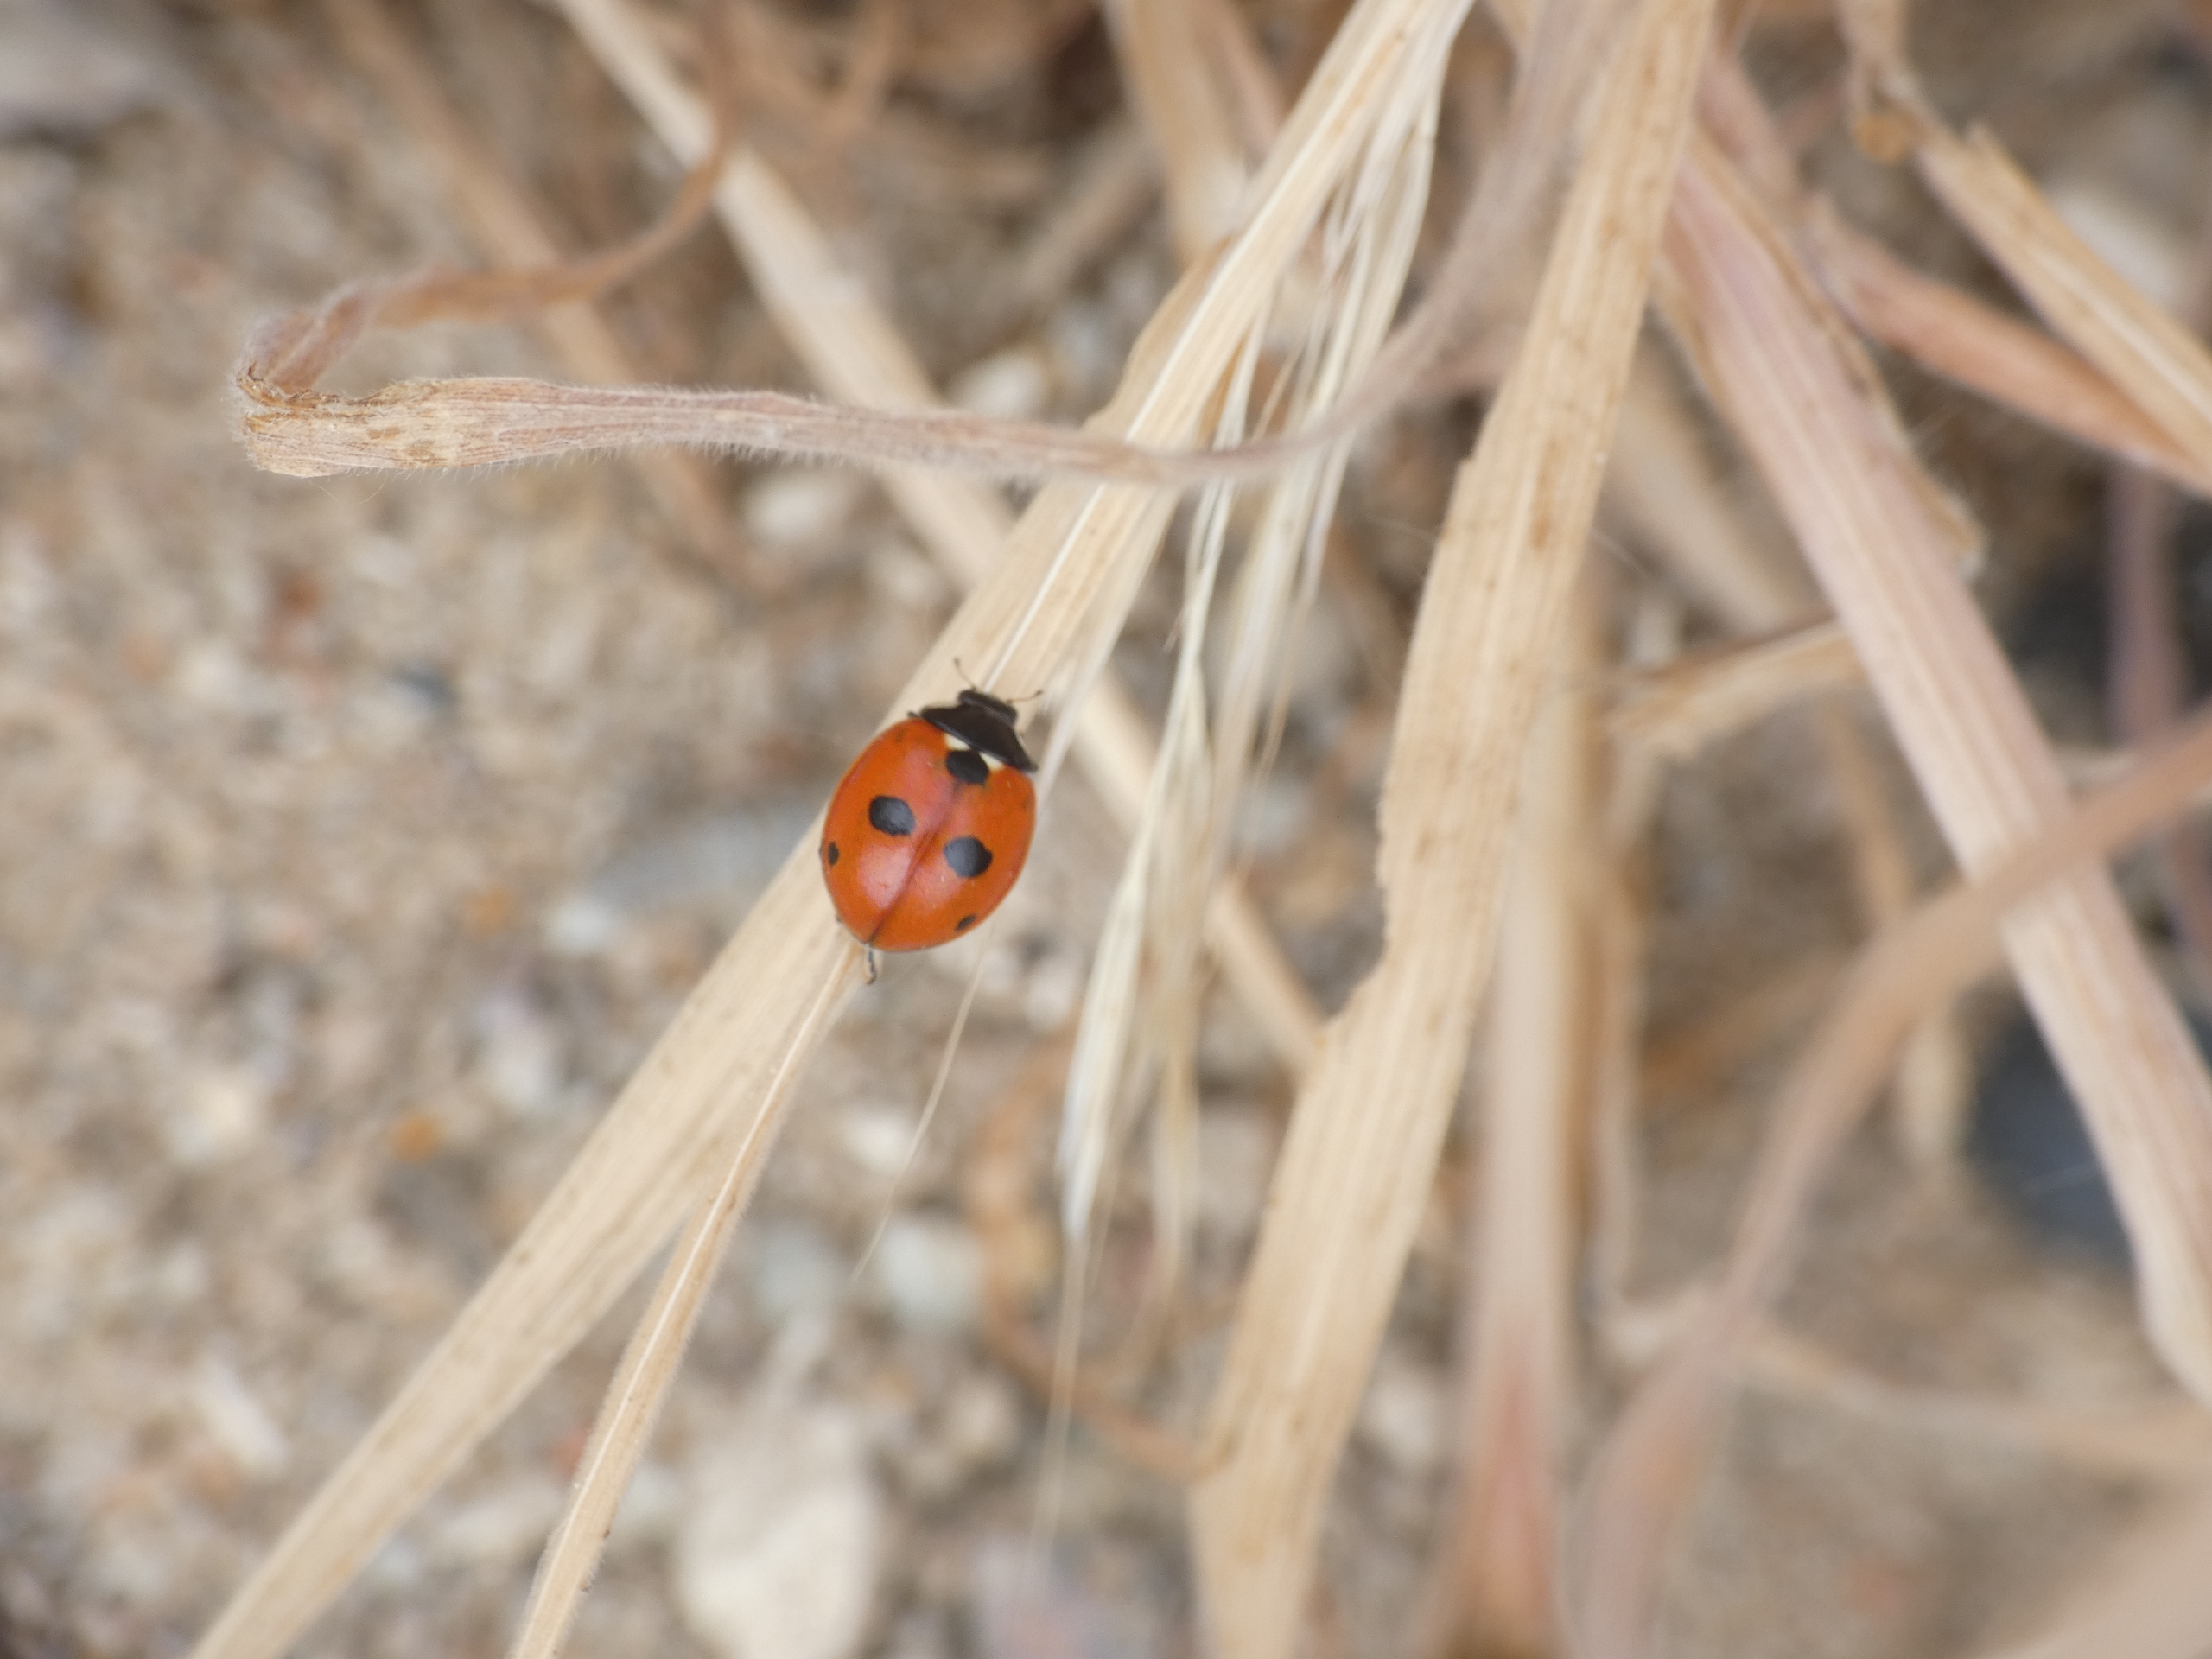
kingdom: Animalia
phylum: Arthropoda
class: Insecta
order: Coleoptera
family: Coccinellidae
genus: Coccinella
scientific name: Coccinella quinquepunctata
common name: Femplettet mariehøne
